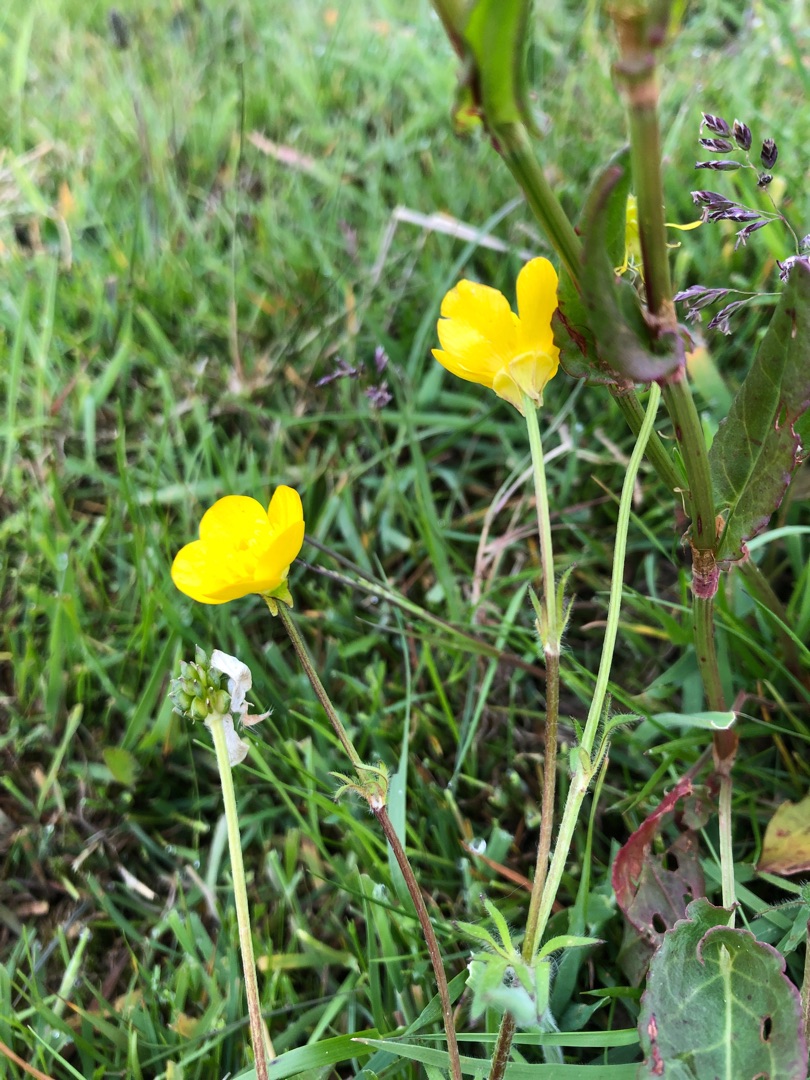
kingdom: Plantae
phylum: Tracheophyta
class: Magnoliopsida
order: Ranunculales
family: Ranunculaceae
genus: Ranunculus
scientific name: Ranunculus bulbosus
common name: Knold-ranunkel
